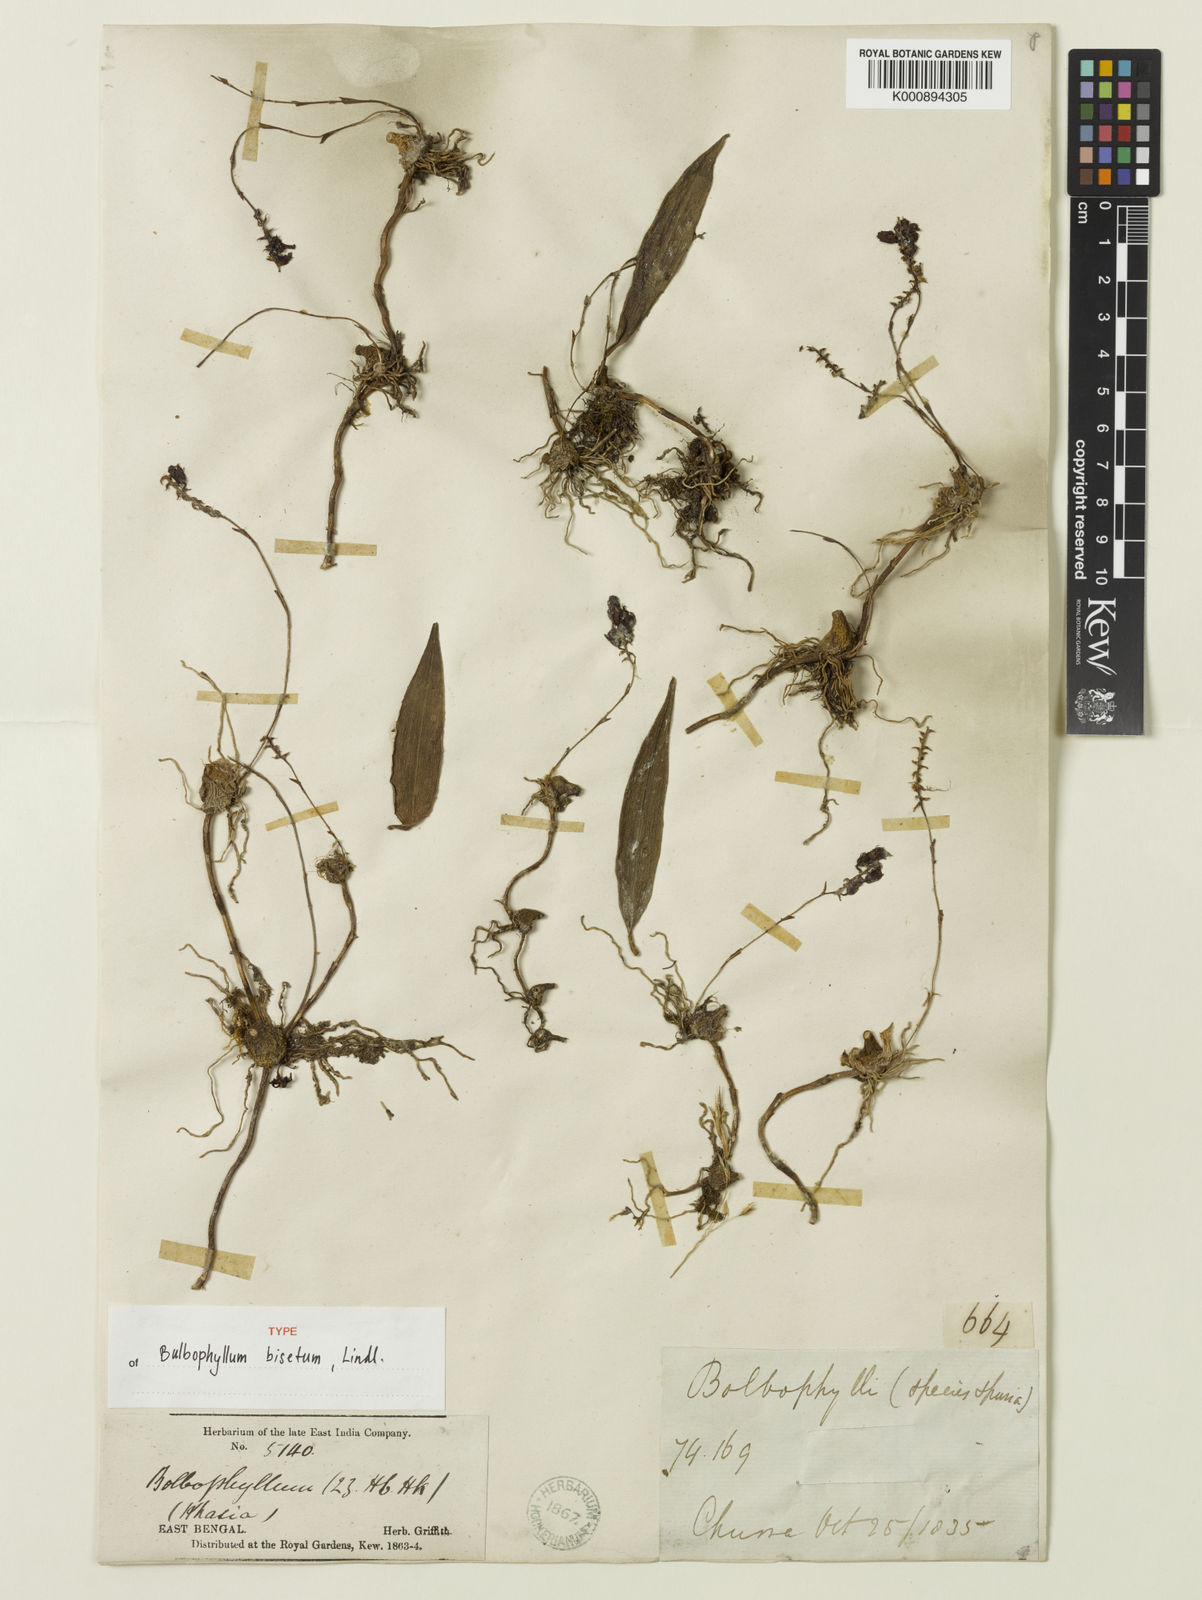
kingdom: Plantae
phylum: Tracheophyta
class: Liliopsida
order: Asparagales
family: Orchidaceae
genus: Bulbophyllum
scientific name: Bulbophyllum bisetum
